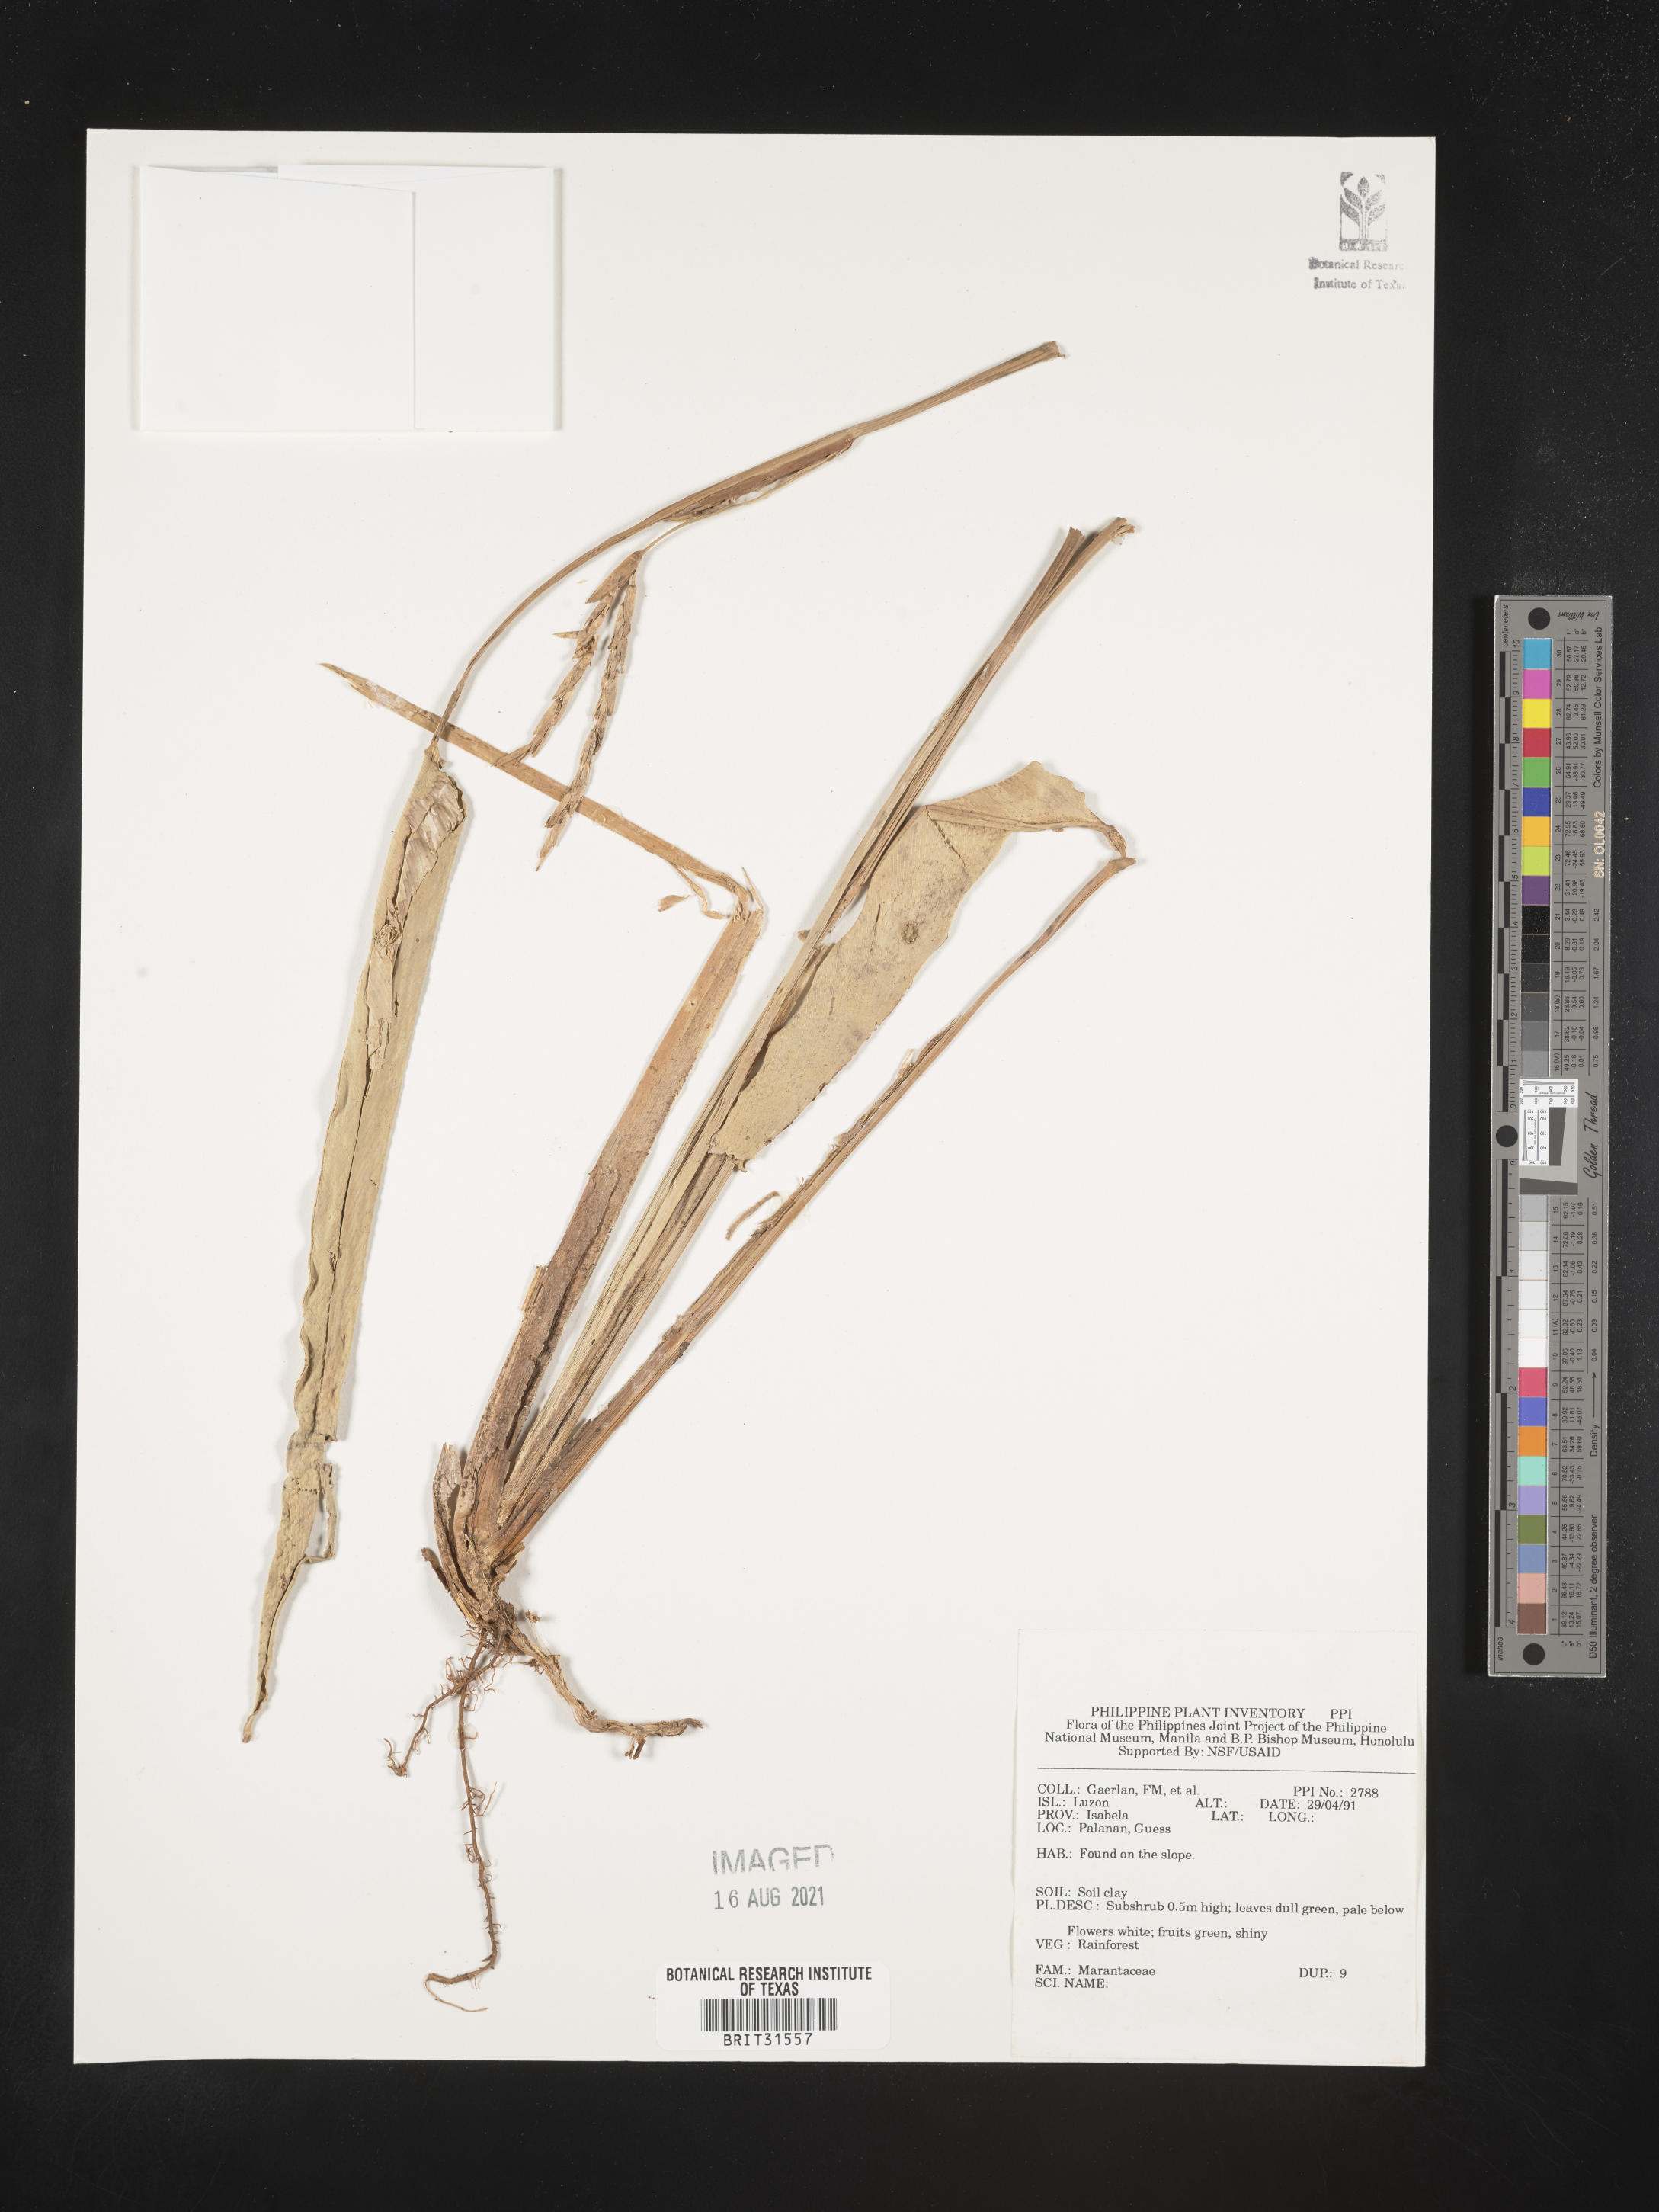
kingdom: Plantae
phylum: Tracheophyta
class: Liliopsida
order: Zingiberales
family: Marantaceae
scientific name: Marantaceae
